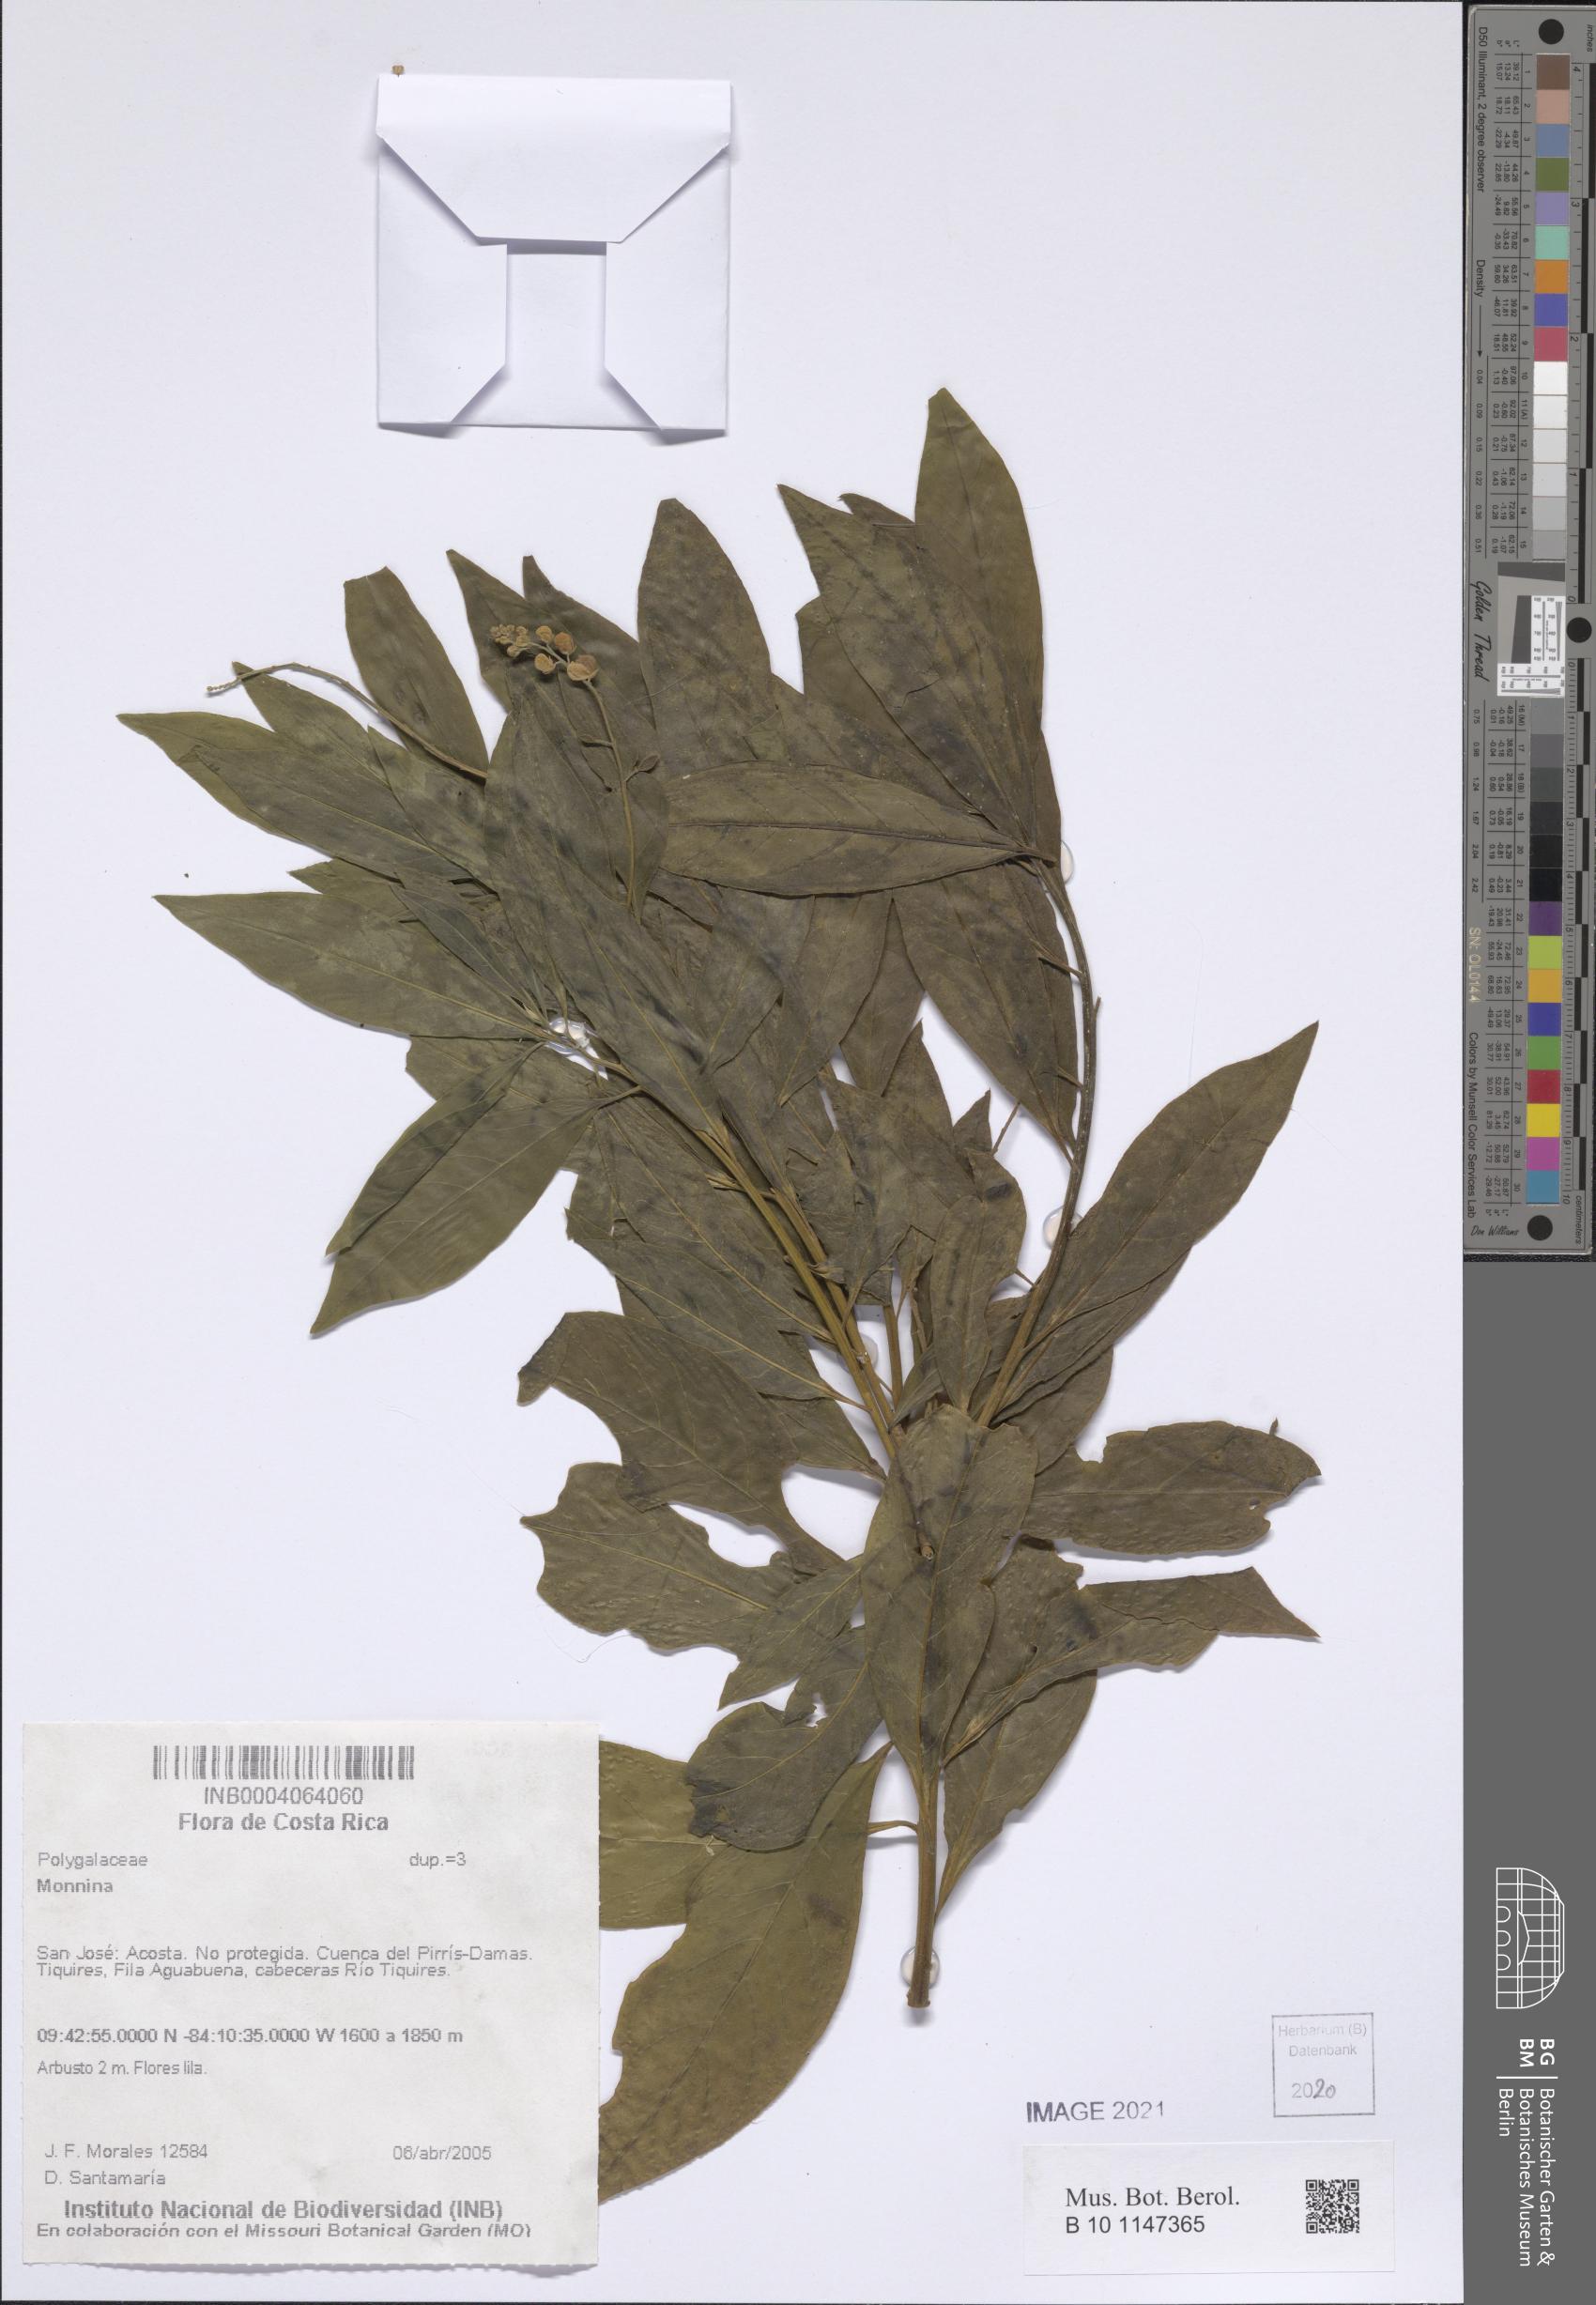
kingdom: Plantae
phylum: Tracheophyta
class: Magnoliopsida
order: Fabales
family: Polygalaceae
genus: Monnina
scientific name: Monnina
